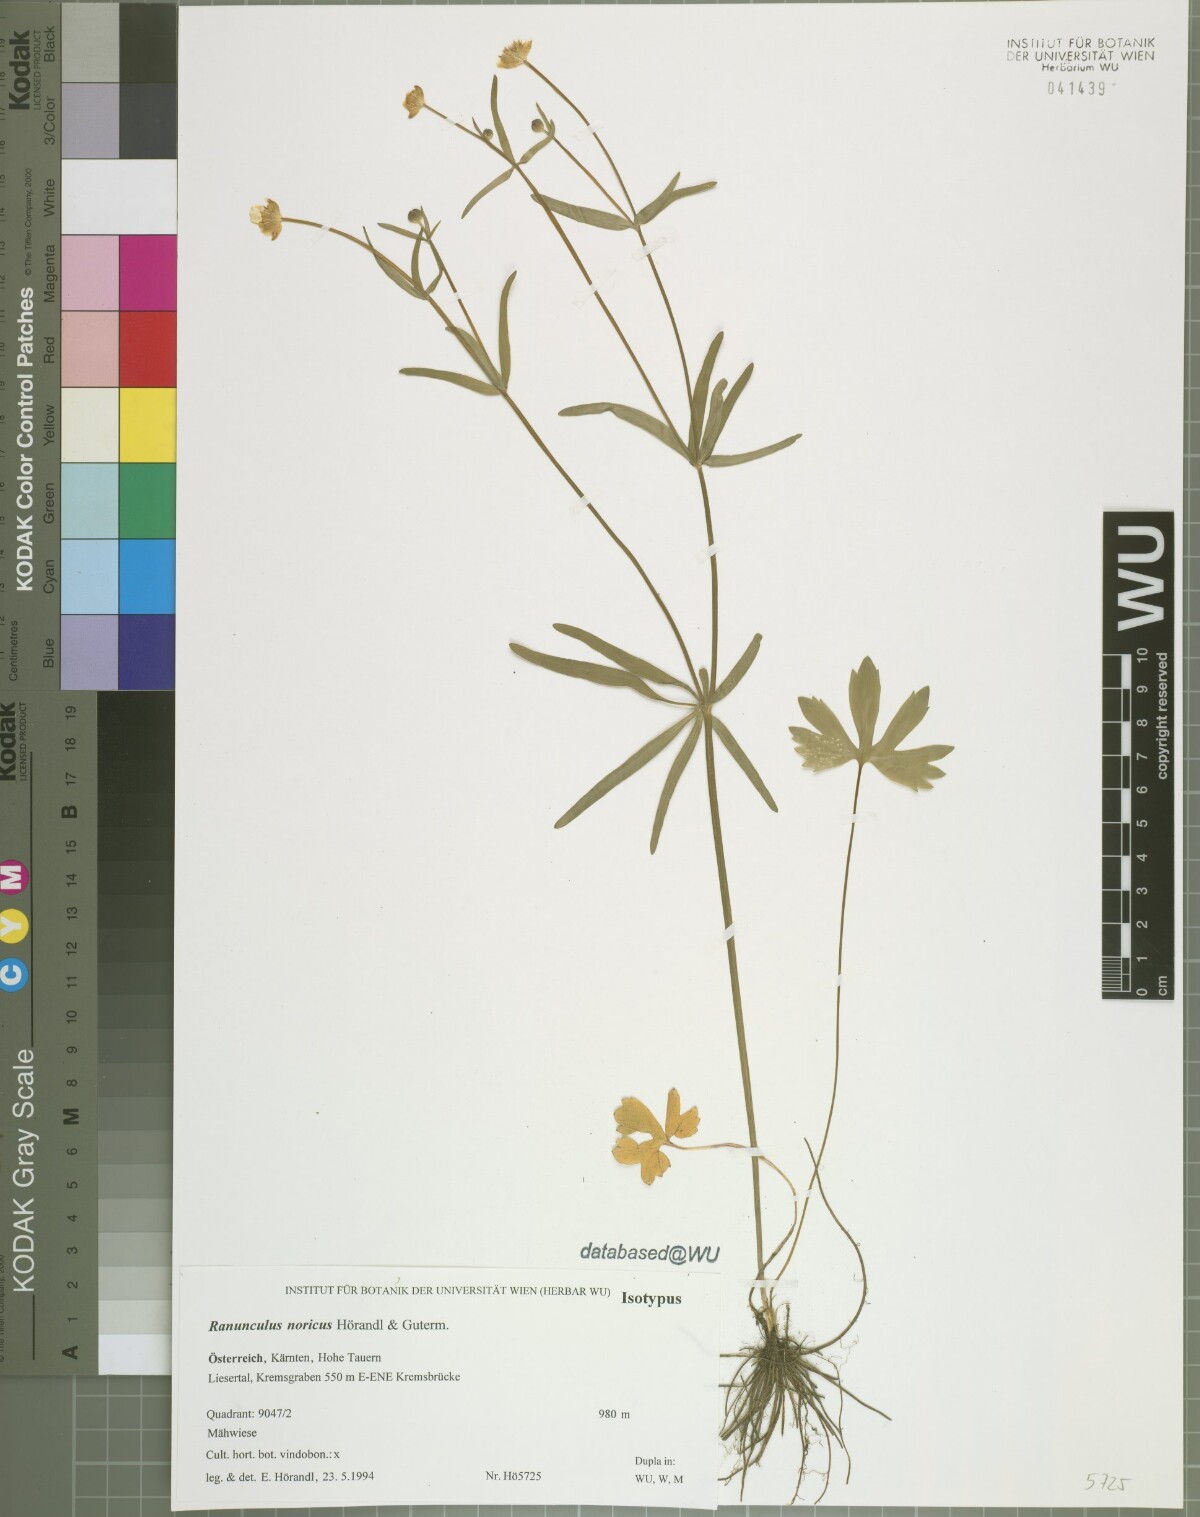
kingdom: Plantae
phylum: Tracheophyta
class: Magnoliopsida
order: Ranunculales
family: Ranunculaceae
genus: Ranunculus
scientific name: Ranunculus noricus
